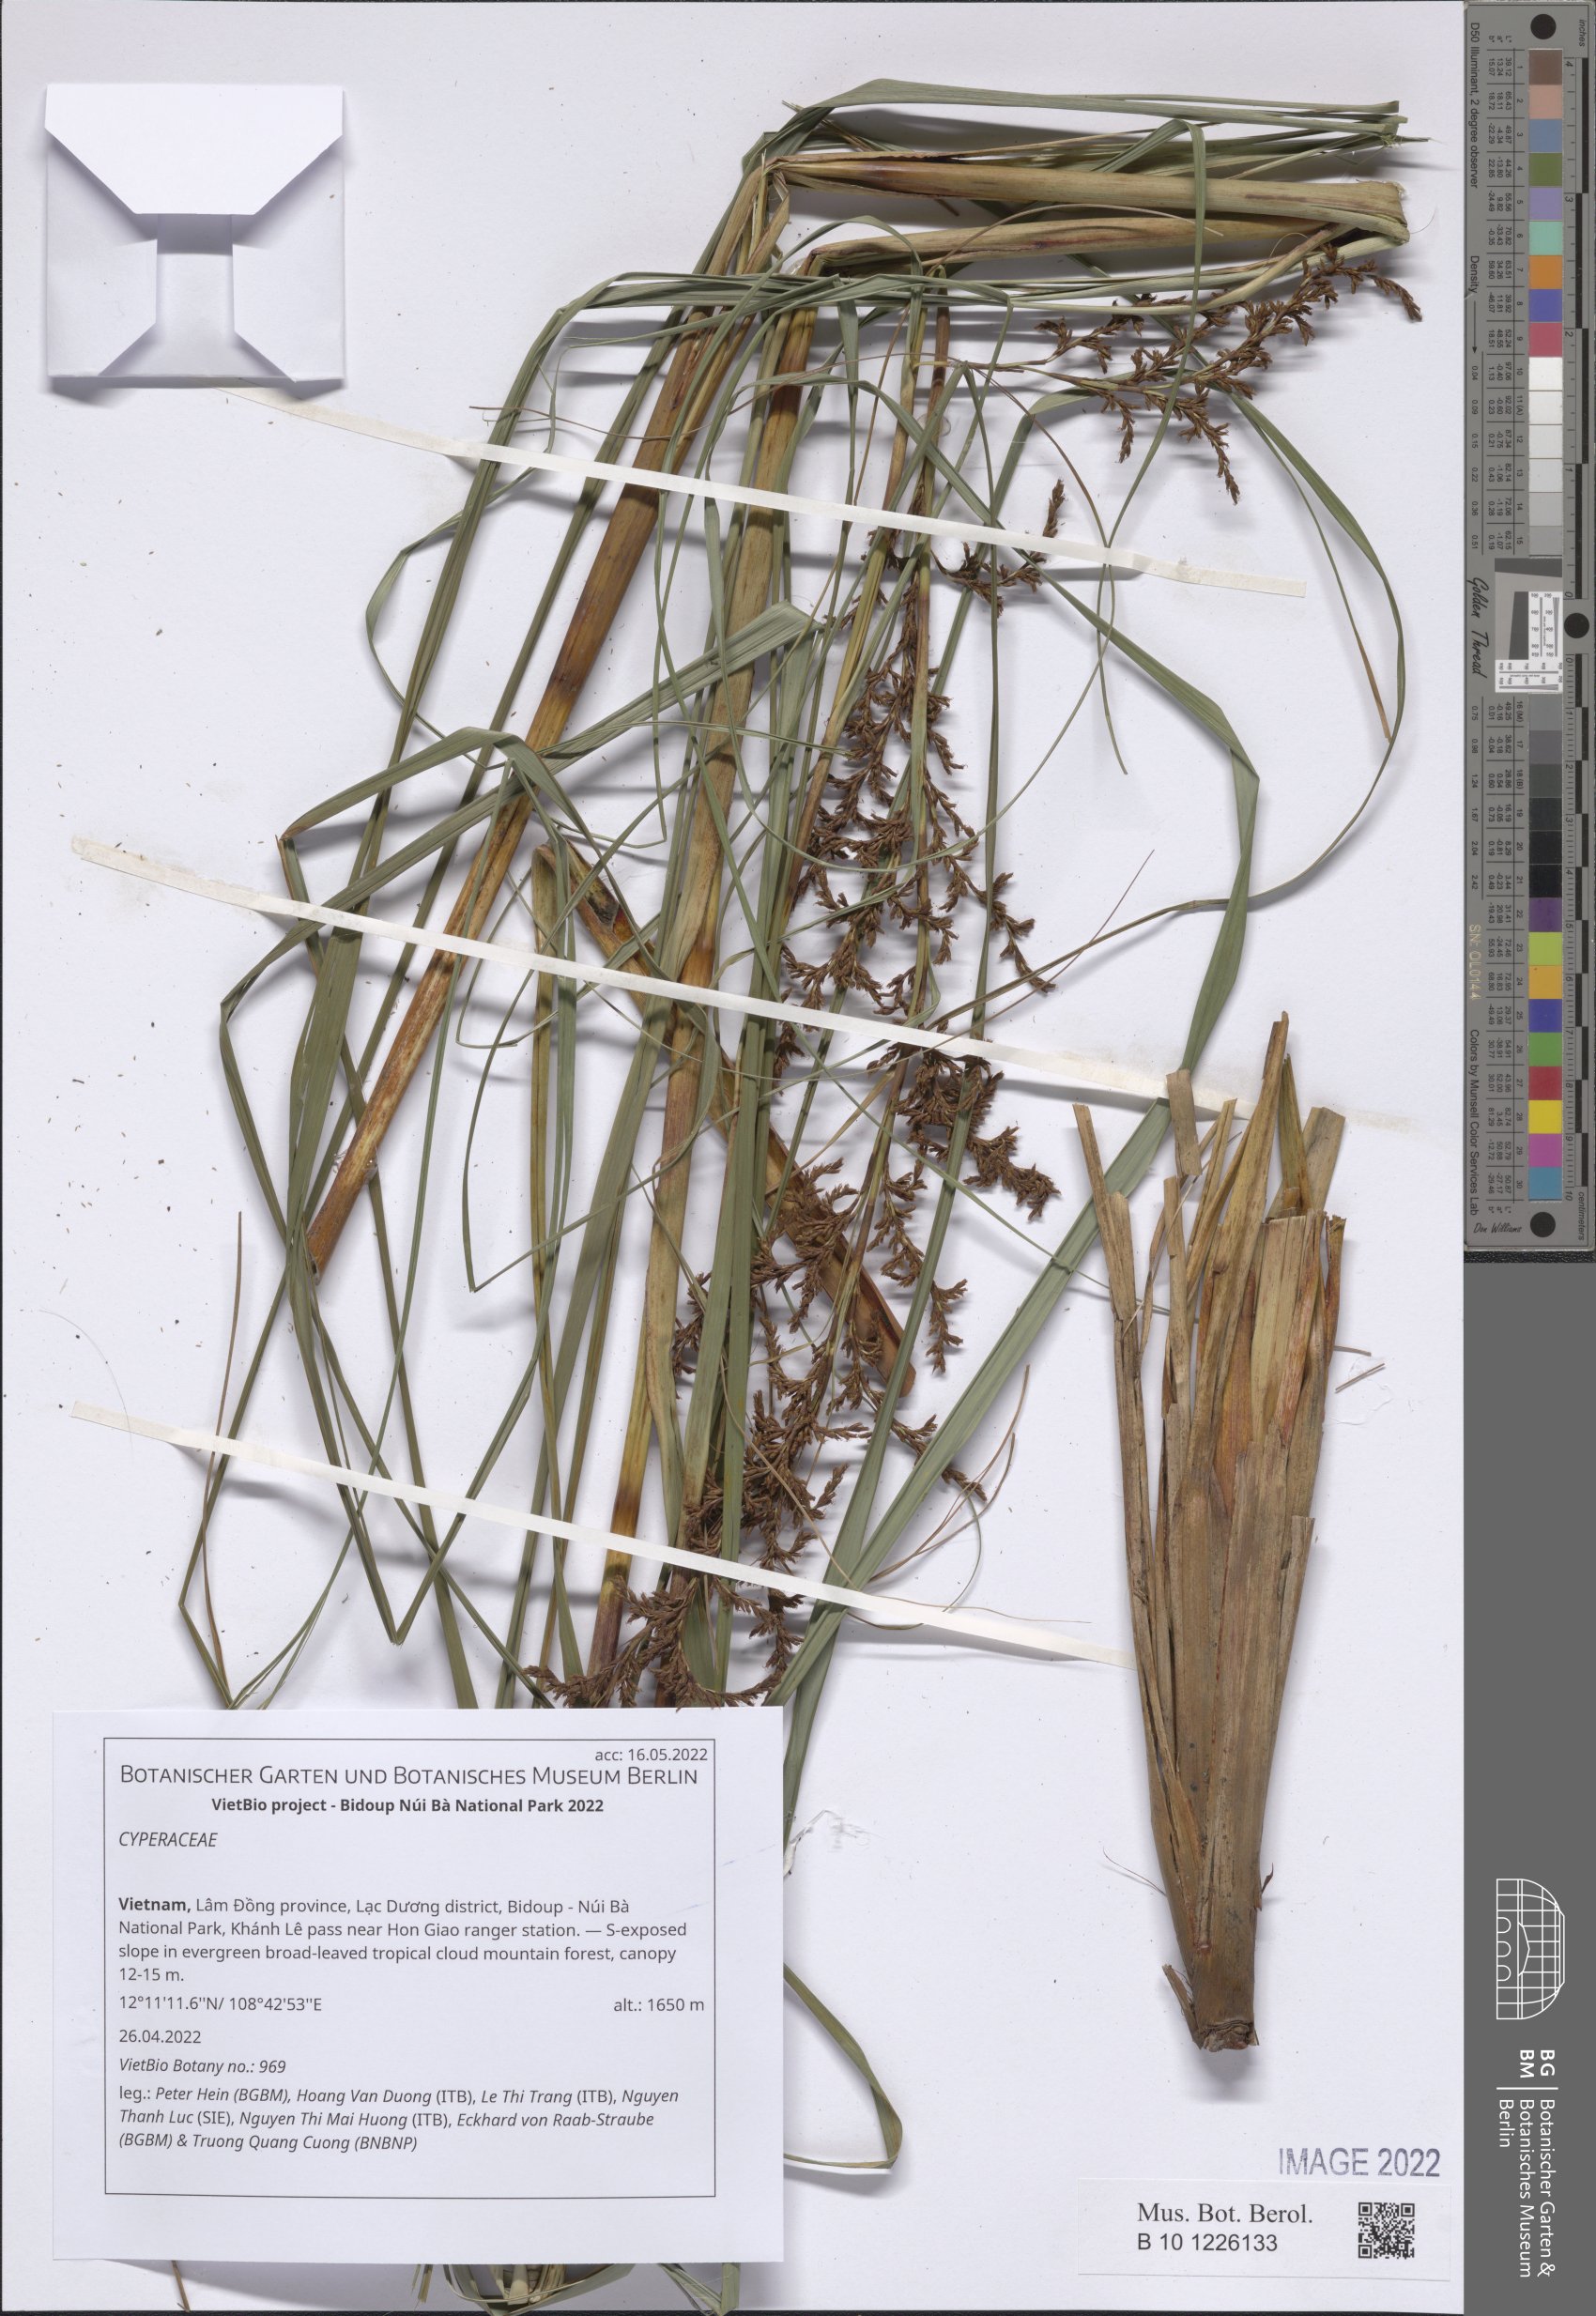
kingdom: Plantae
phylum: Tracheophyta
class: Liliopsida
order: Poales
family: Cyperaceae
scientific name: Cyperaceae
